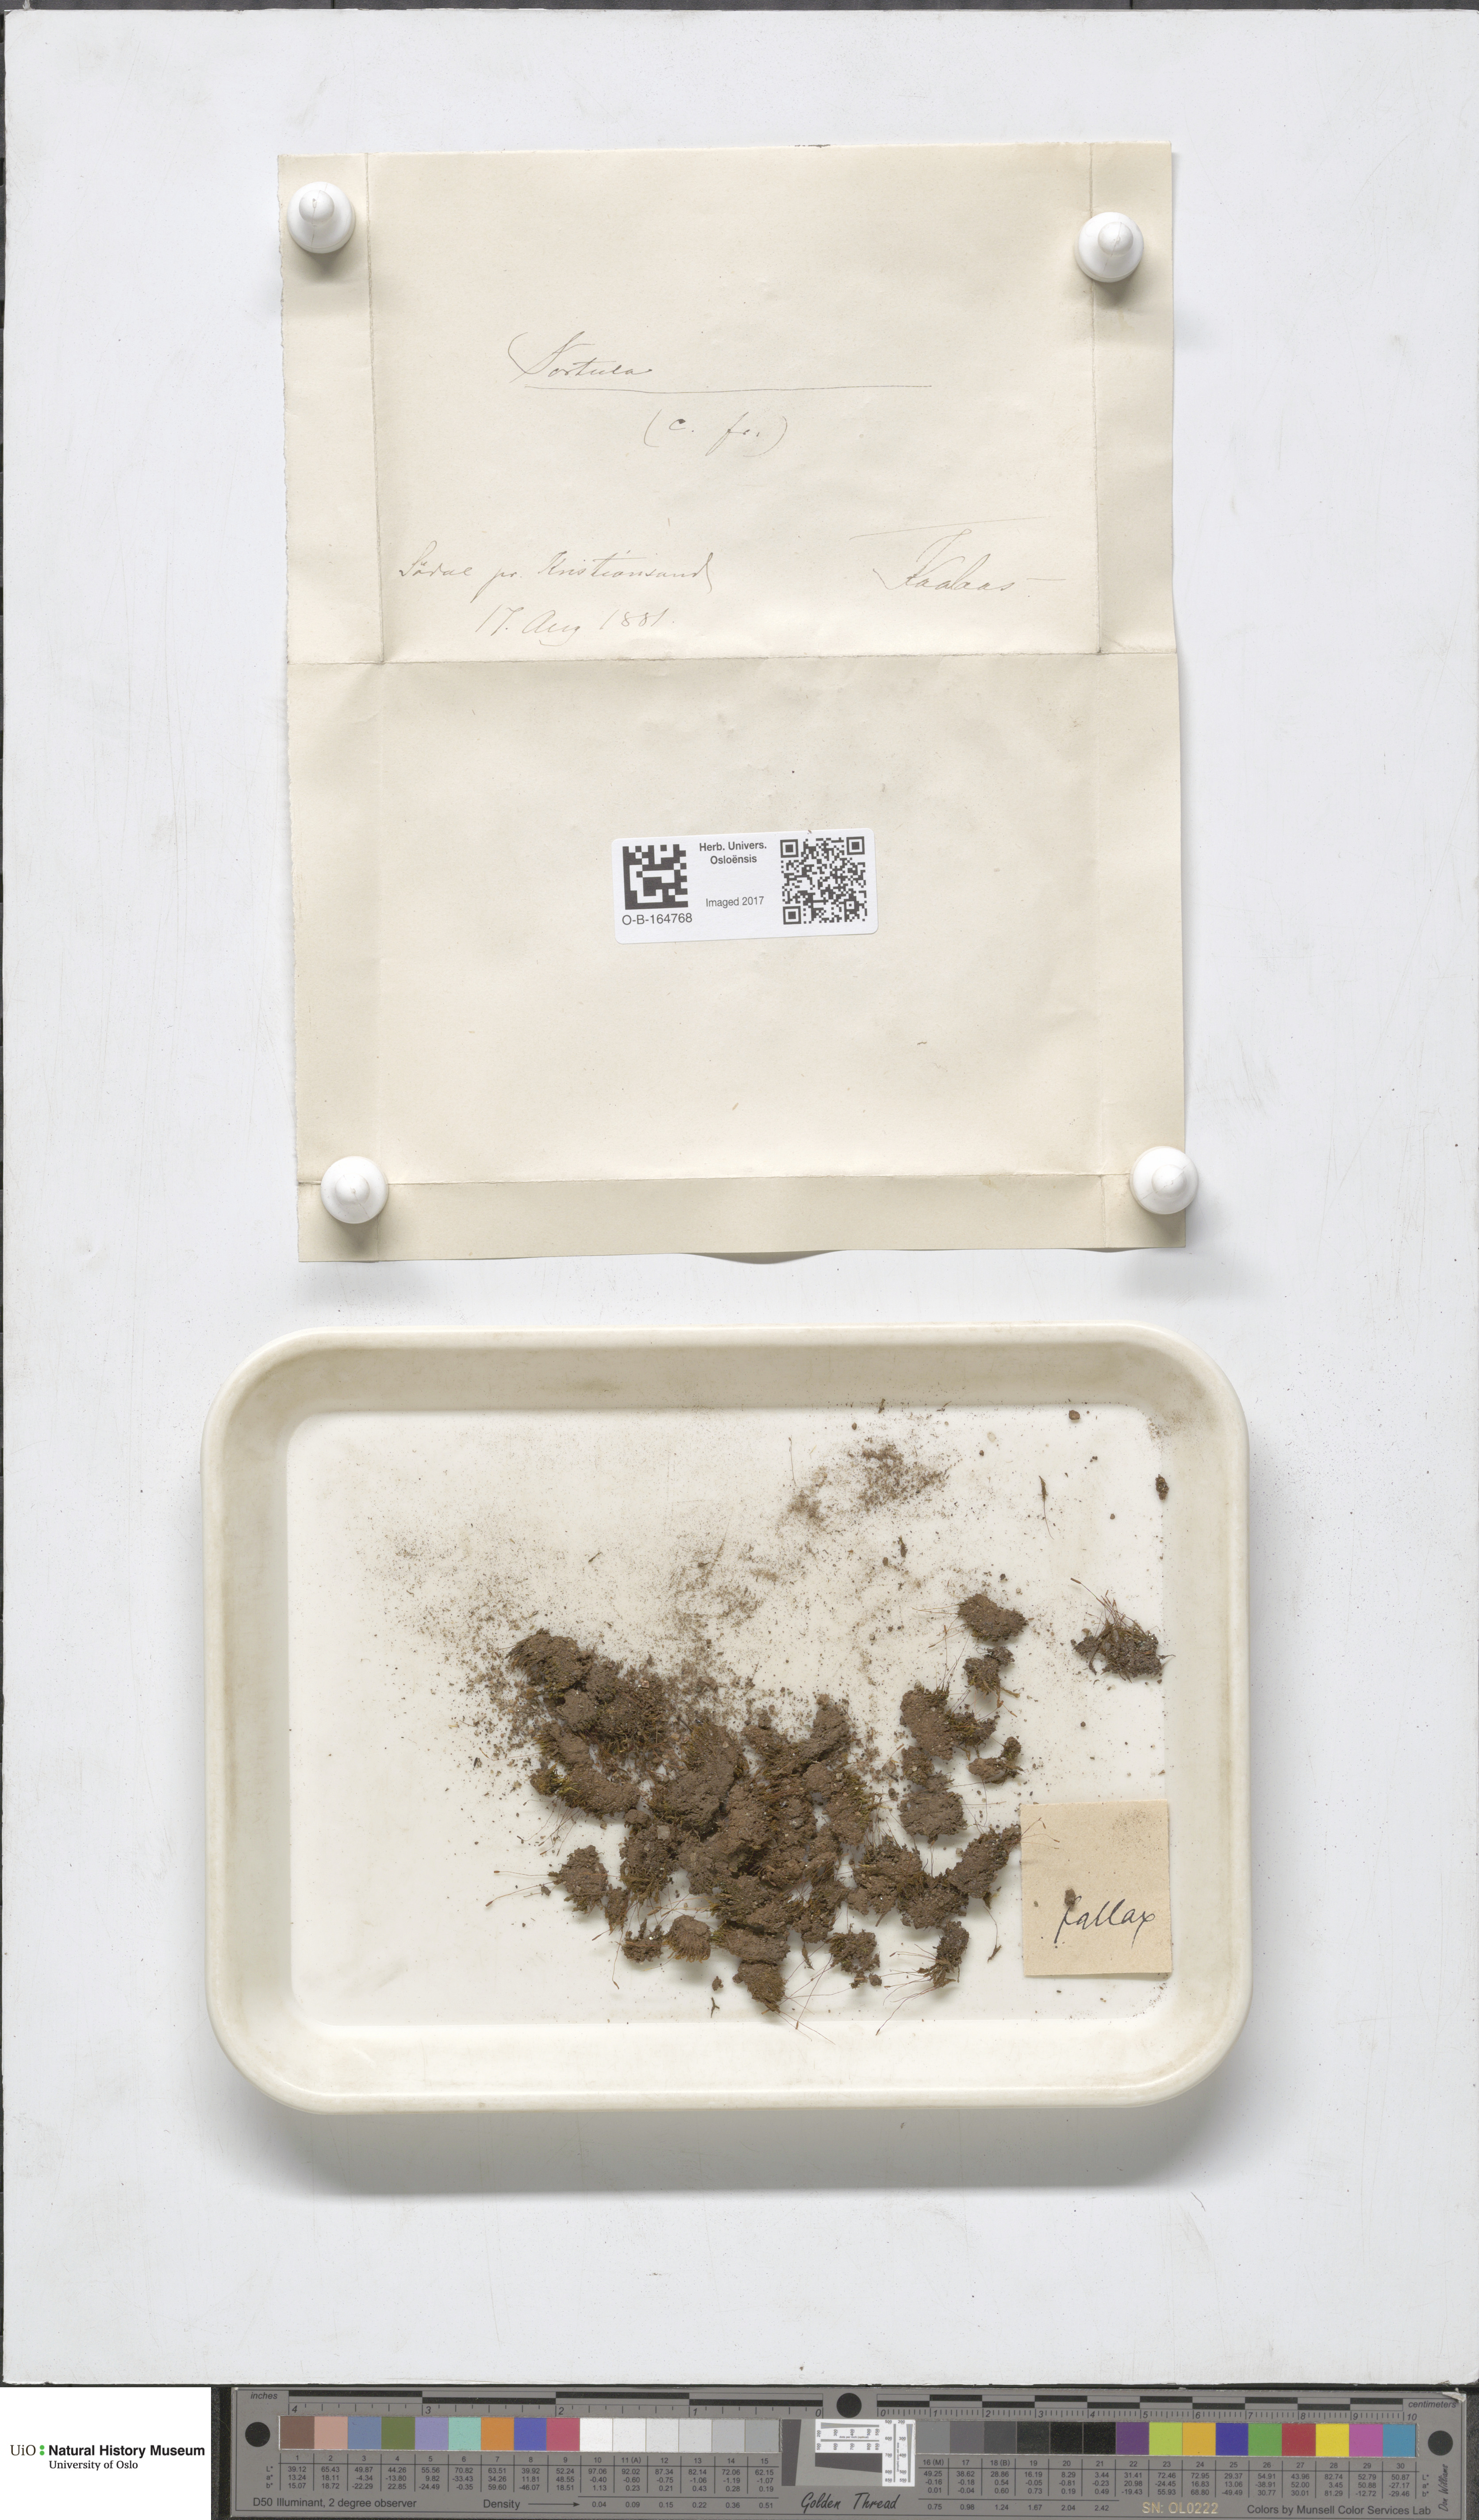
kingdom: Plantae
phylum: Bryophyta
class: Bryopsida
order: Pottiales
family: Pottiaceae
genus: Geheebia
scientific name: Geheebia fallax
